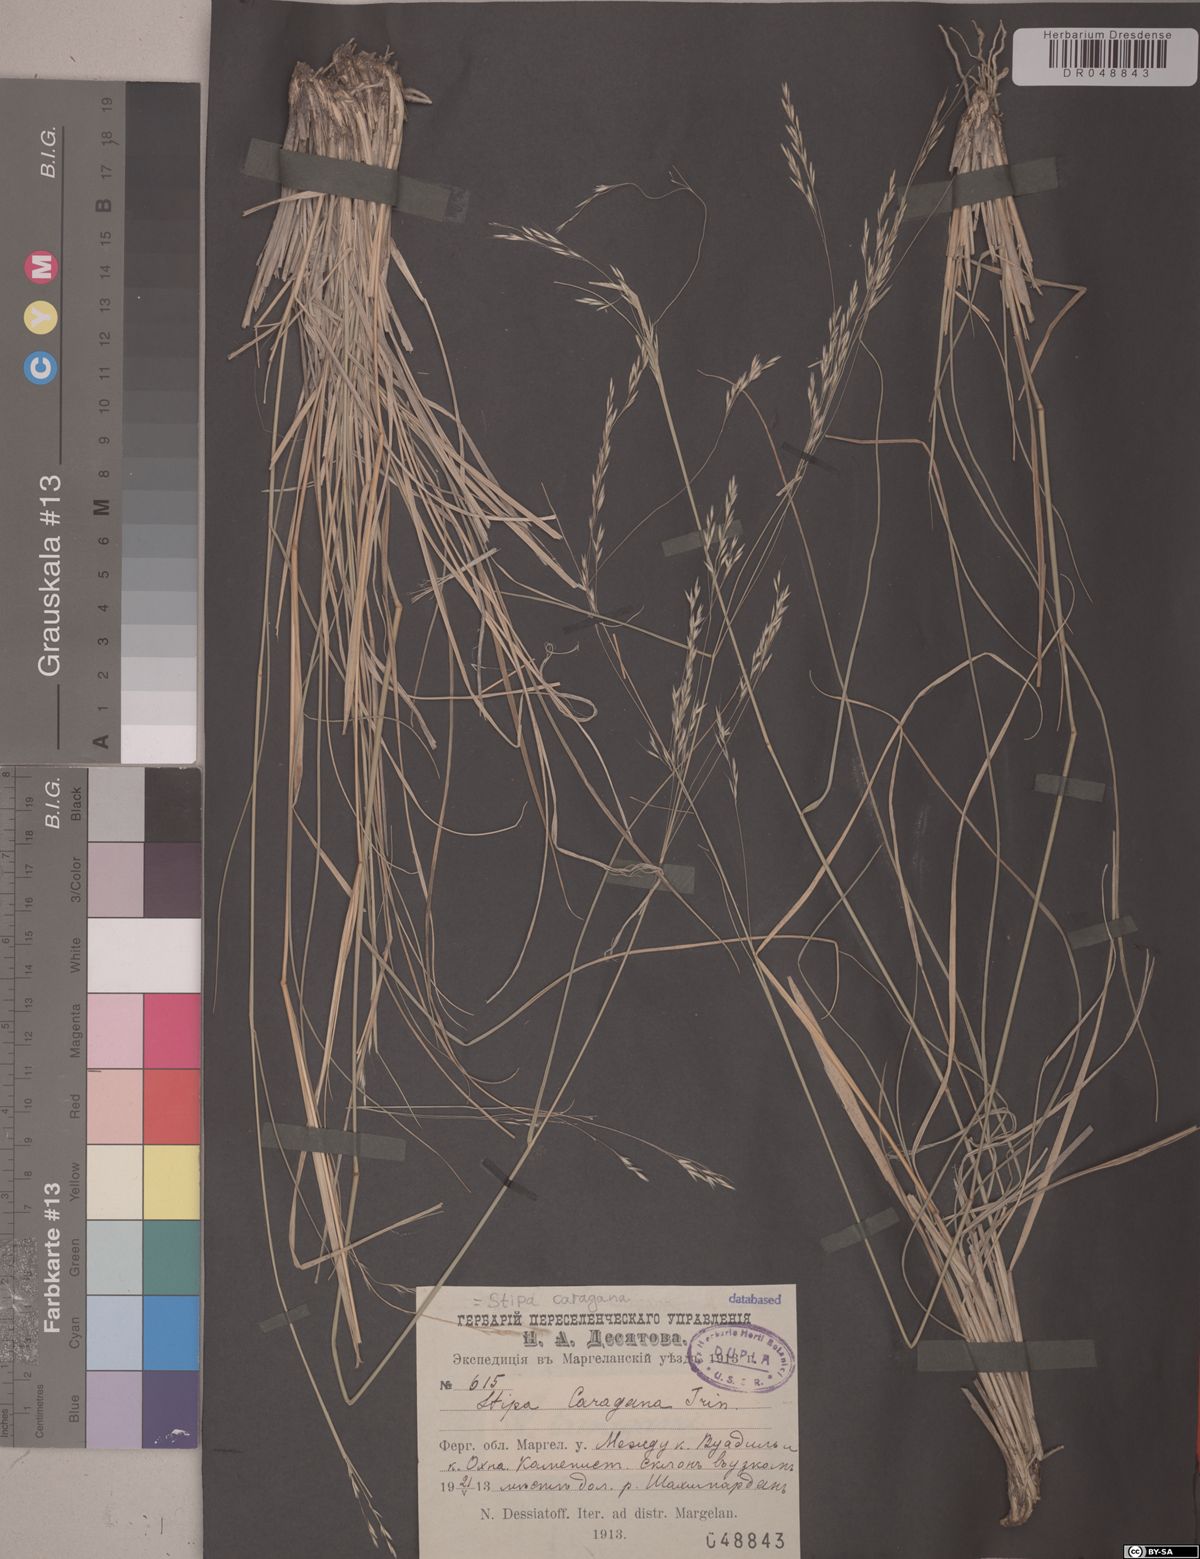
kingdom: Plantae
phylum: Tracheophyta
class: Liliopsida
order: Poales
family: Poaceae
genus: Stipa
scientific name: Stipa conferta
